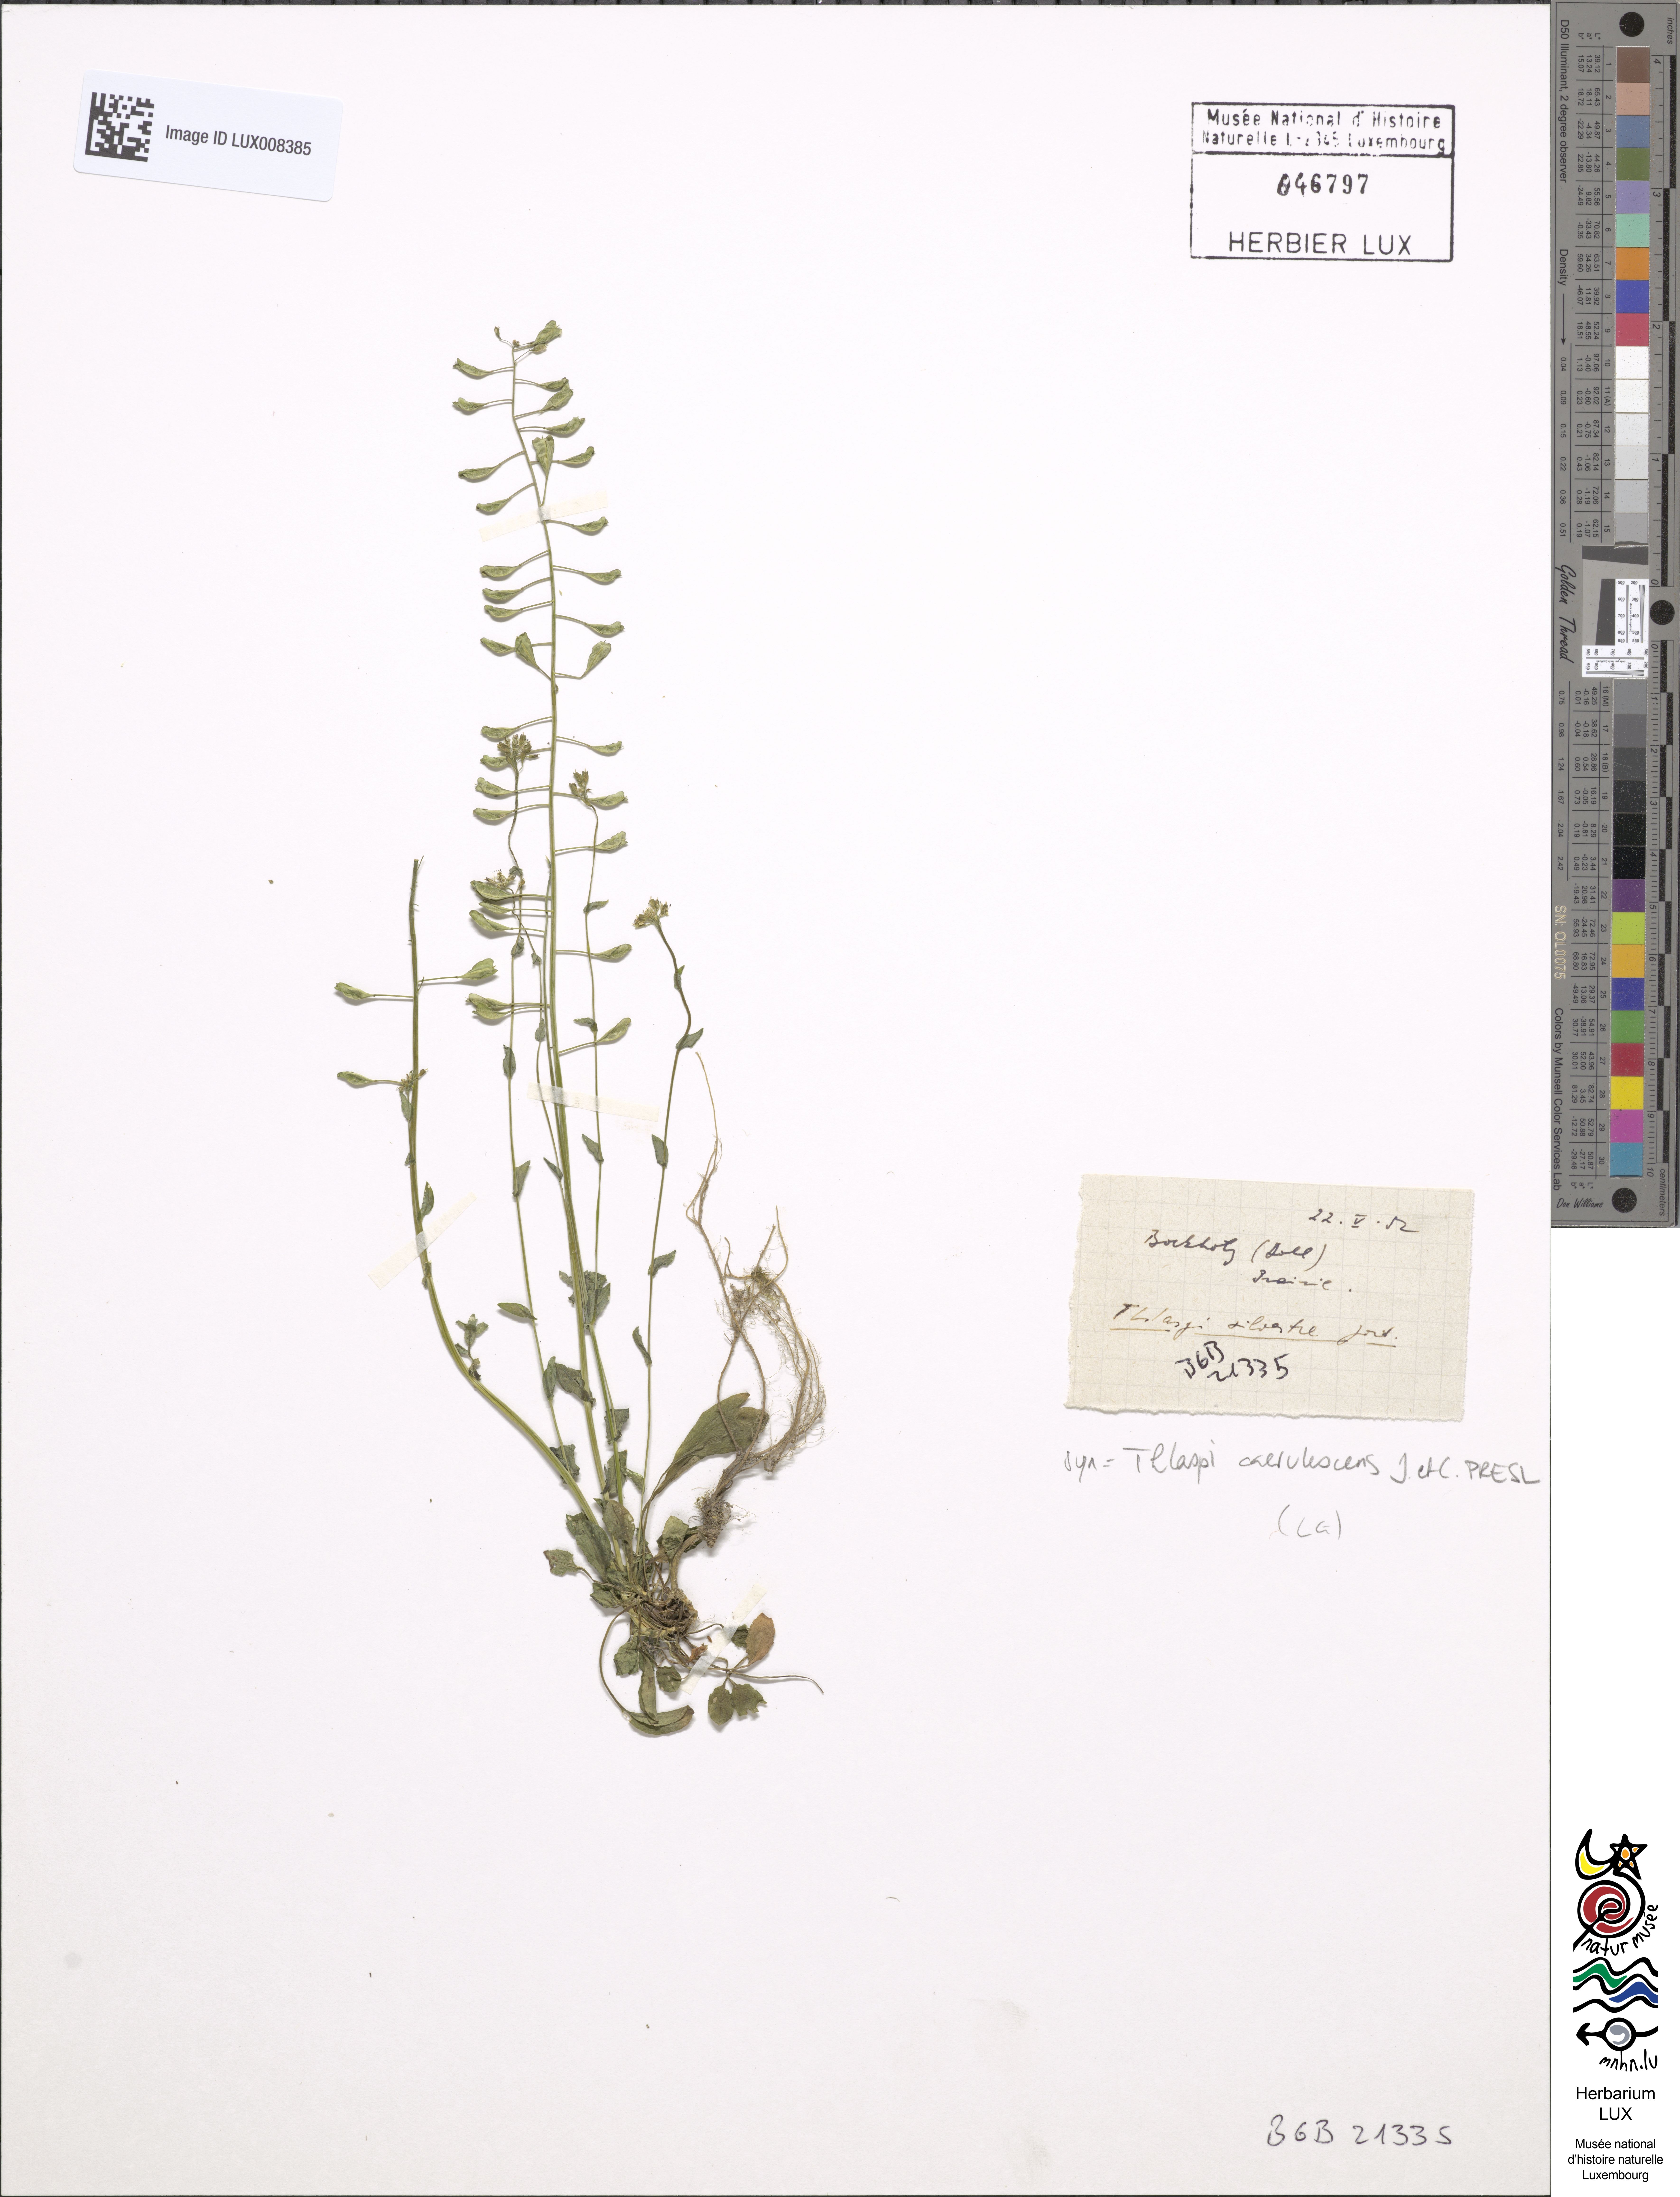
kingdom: Plantae
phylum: Tracheophyta
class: Magnoliopsida
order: Brassicales
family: Brassicaceae
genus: Noccaea
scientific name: Noccaea caerulescens
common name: Alpine pennycress
